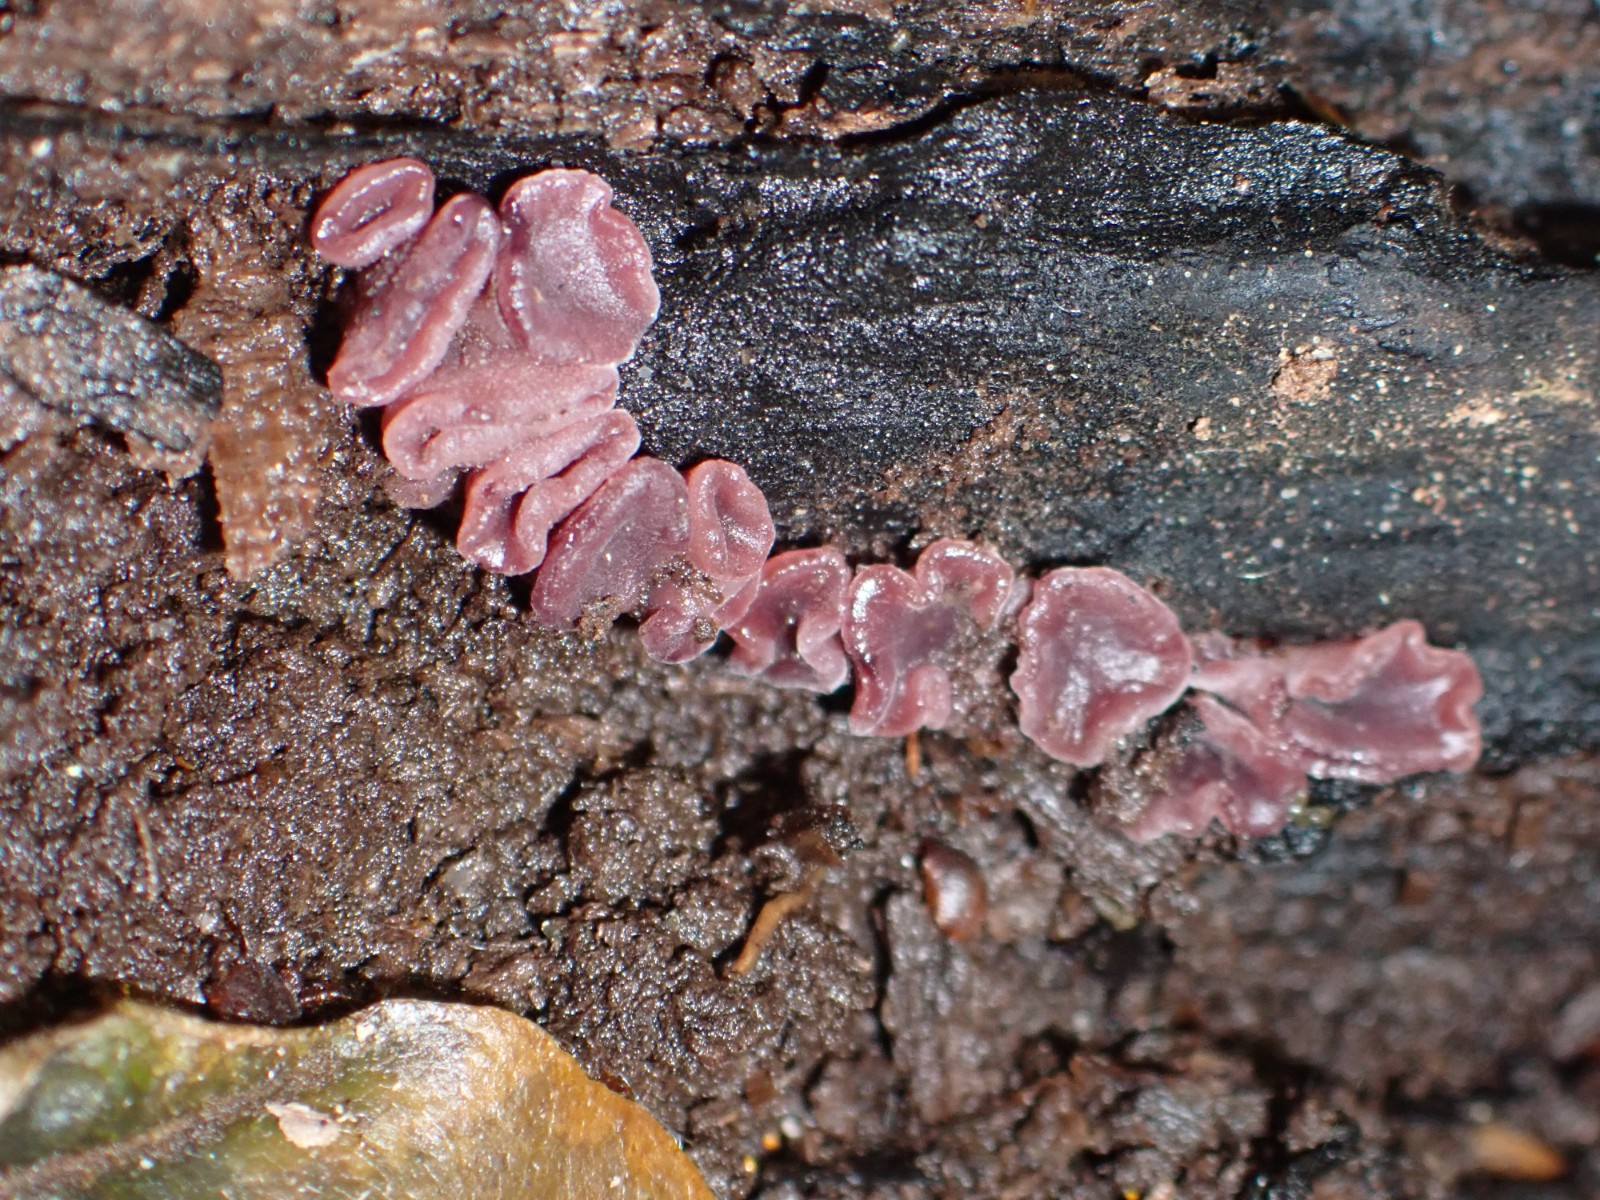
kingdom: Fungi
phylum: Ascomycota
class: Leotiomycetes
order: Helotiales
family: Gelatinodiscaceae
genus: Ascocoryne
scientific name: Ascocoryne
